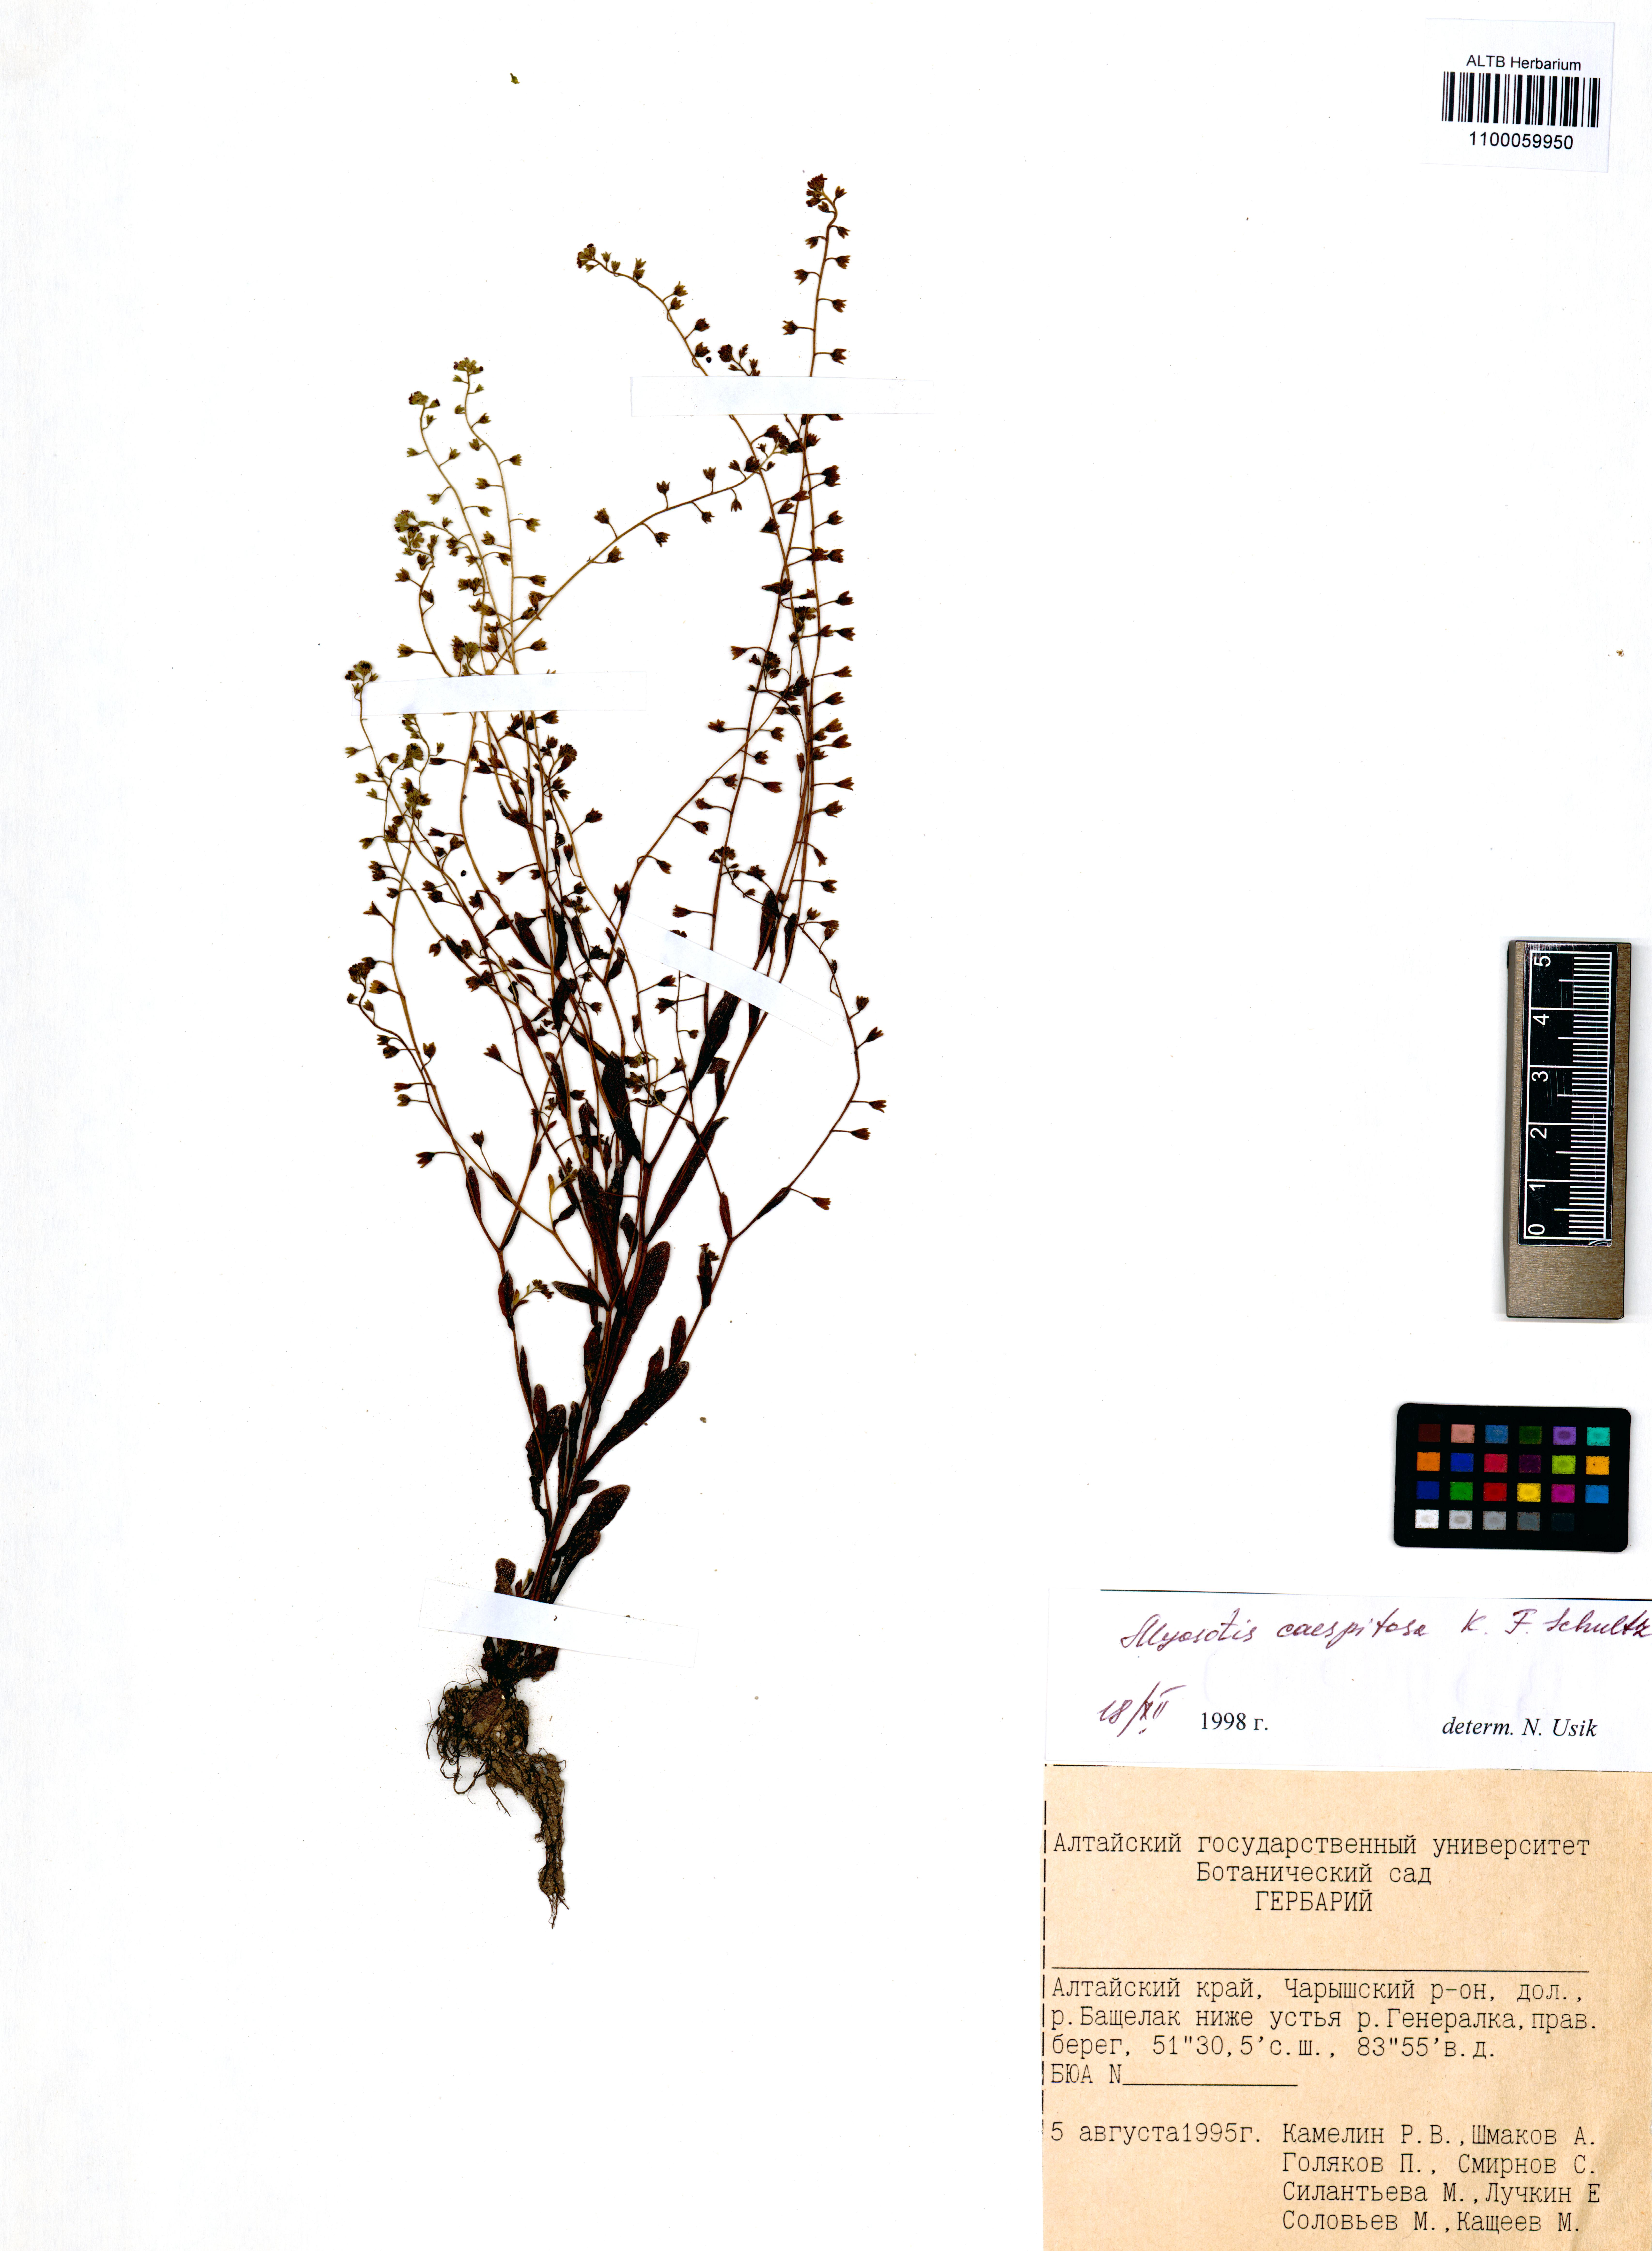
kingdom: Plantae
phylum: Tracheophyta
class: Magnoliopsida
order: Boraginales
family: Boraginaceae
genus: Myosotis
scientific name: Myosotis laxa
